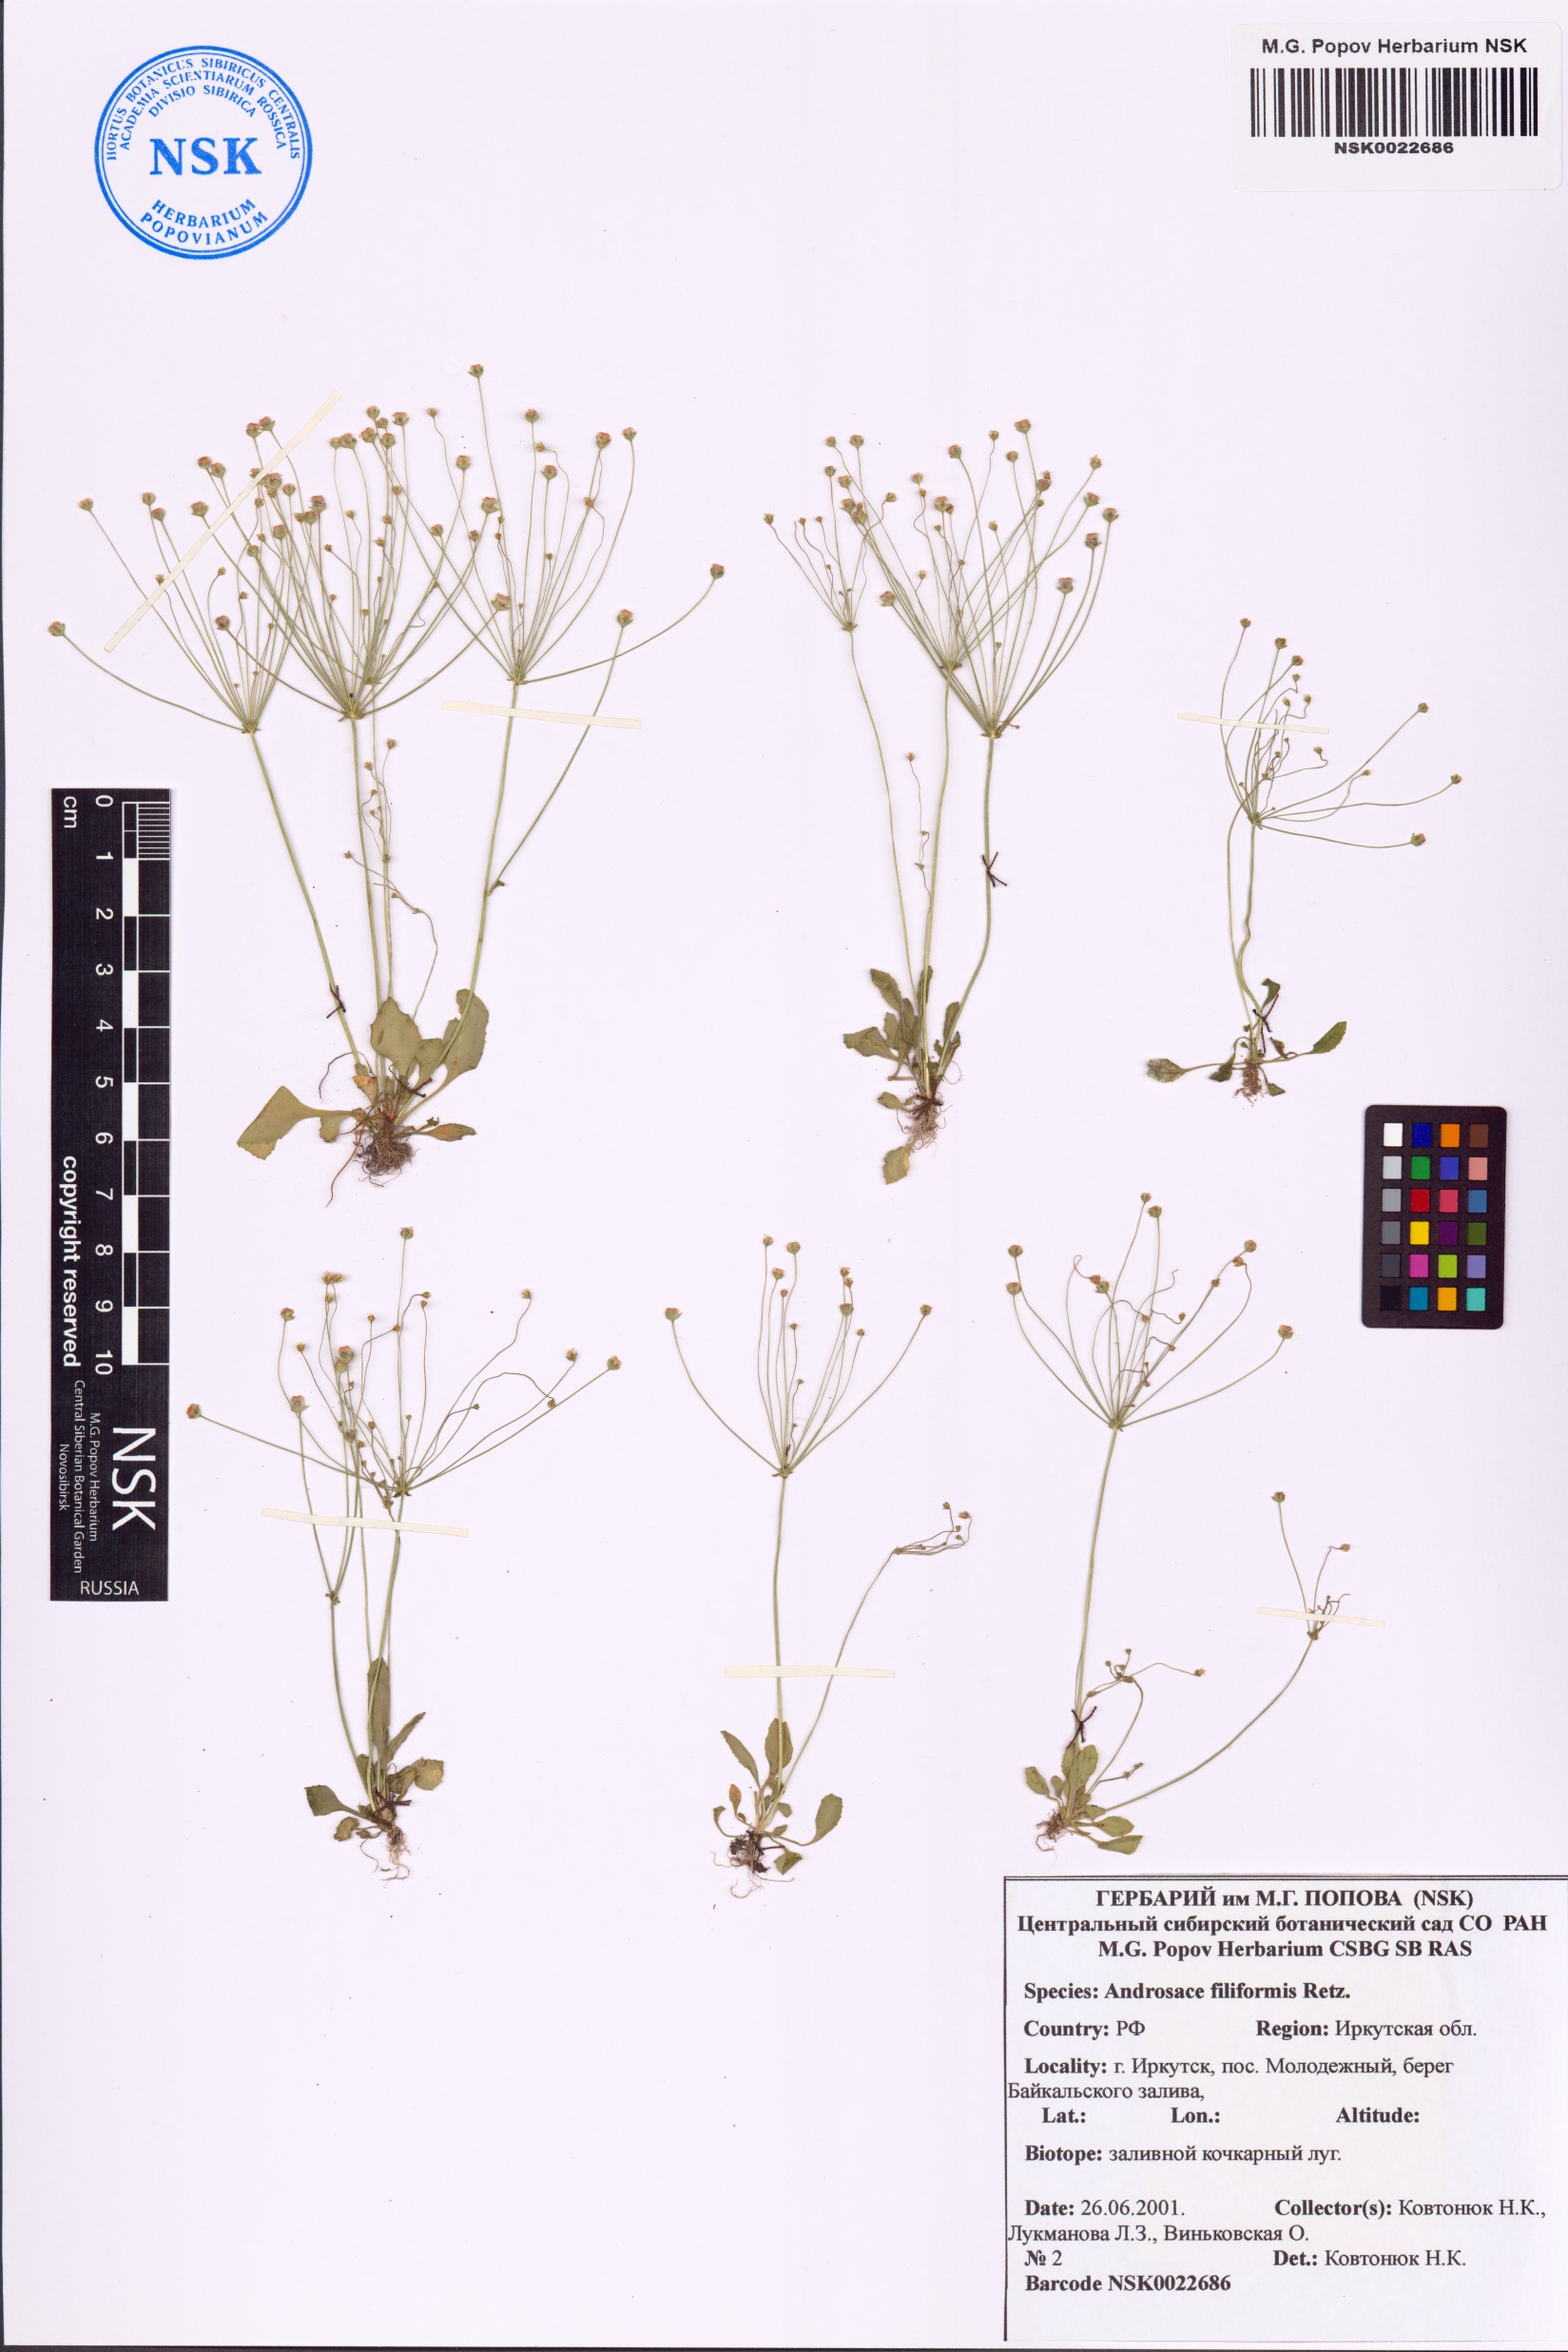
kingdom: Plantae
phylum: Tracheophyta
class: Magnoliopsida
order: Ericales
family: Primulaceae
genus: Androsace
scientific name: Androsace filiformis
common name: Filiform rock jasmine
